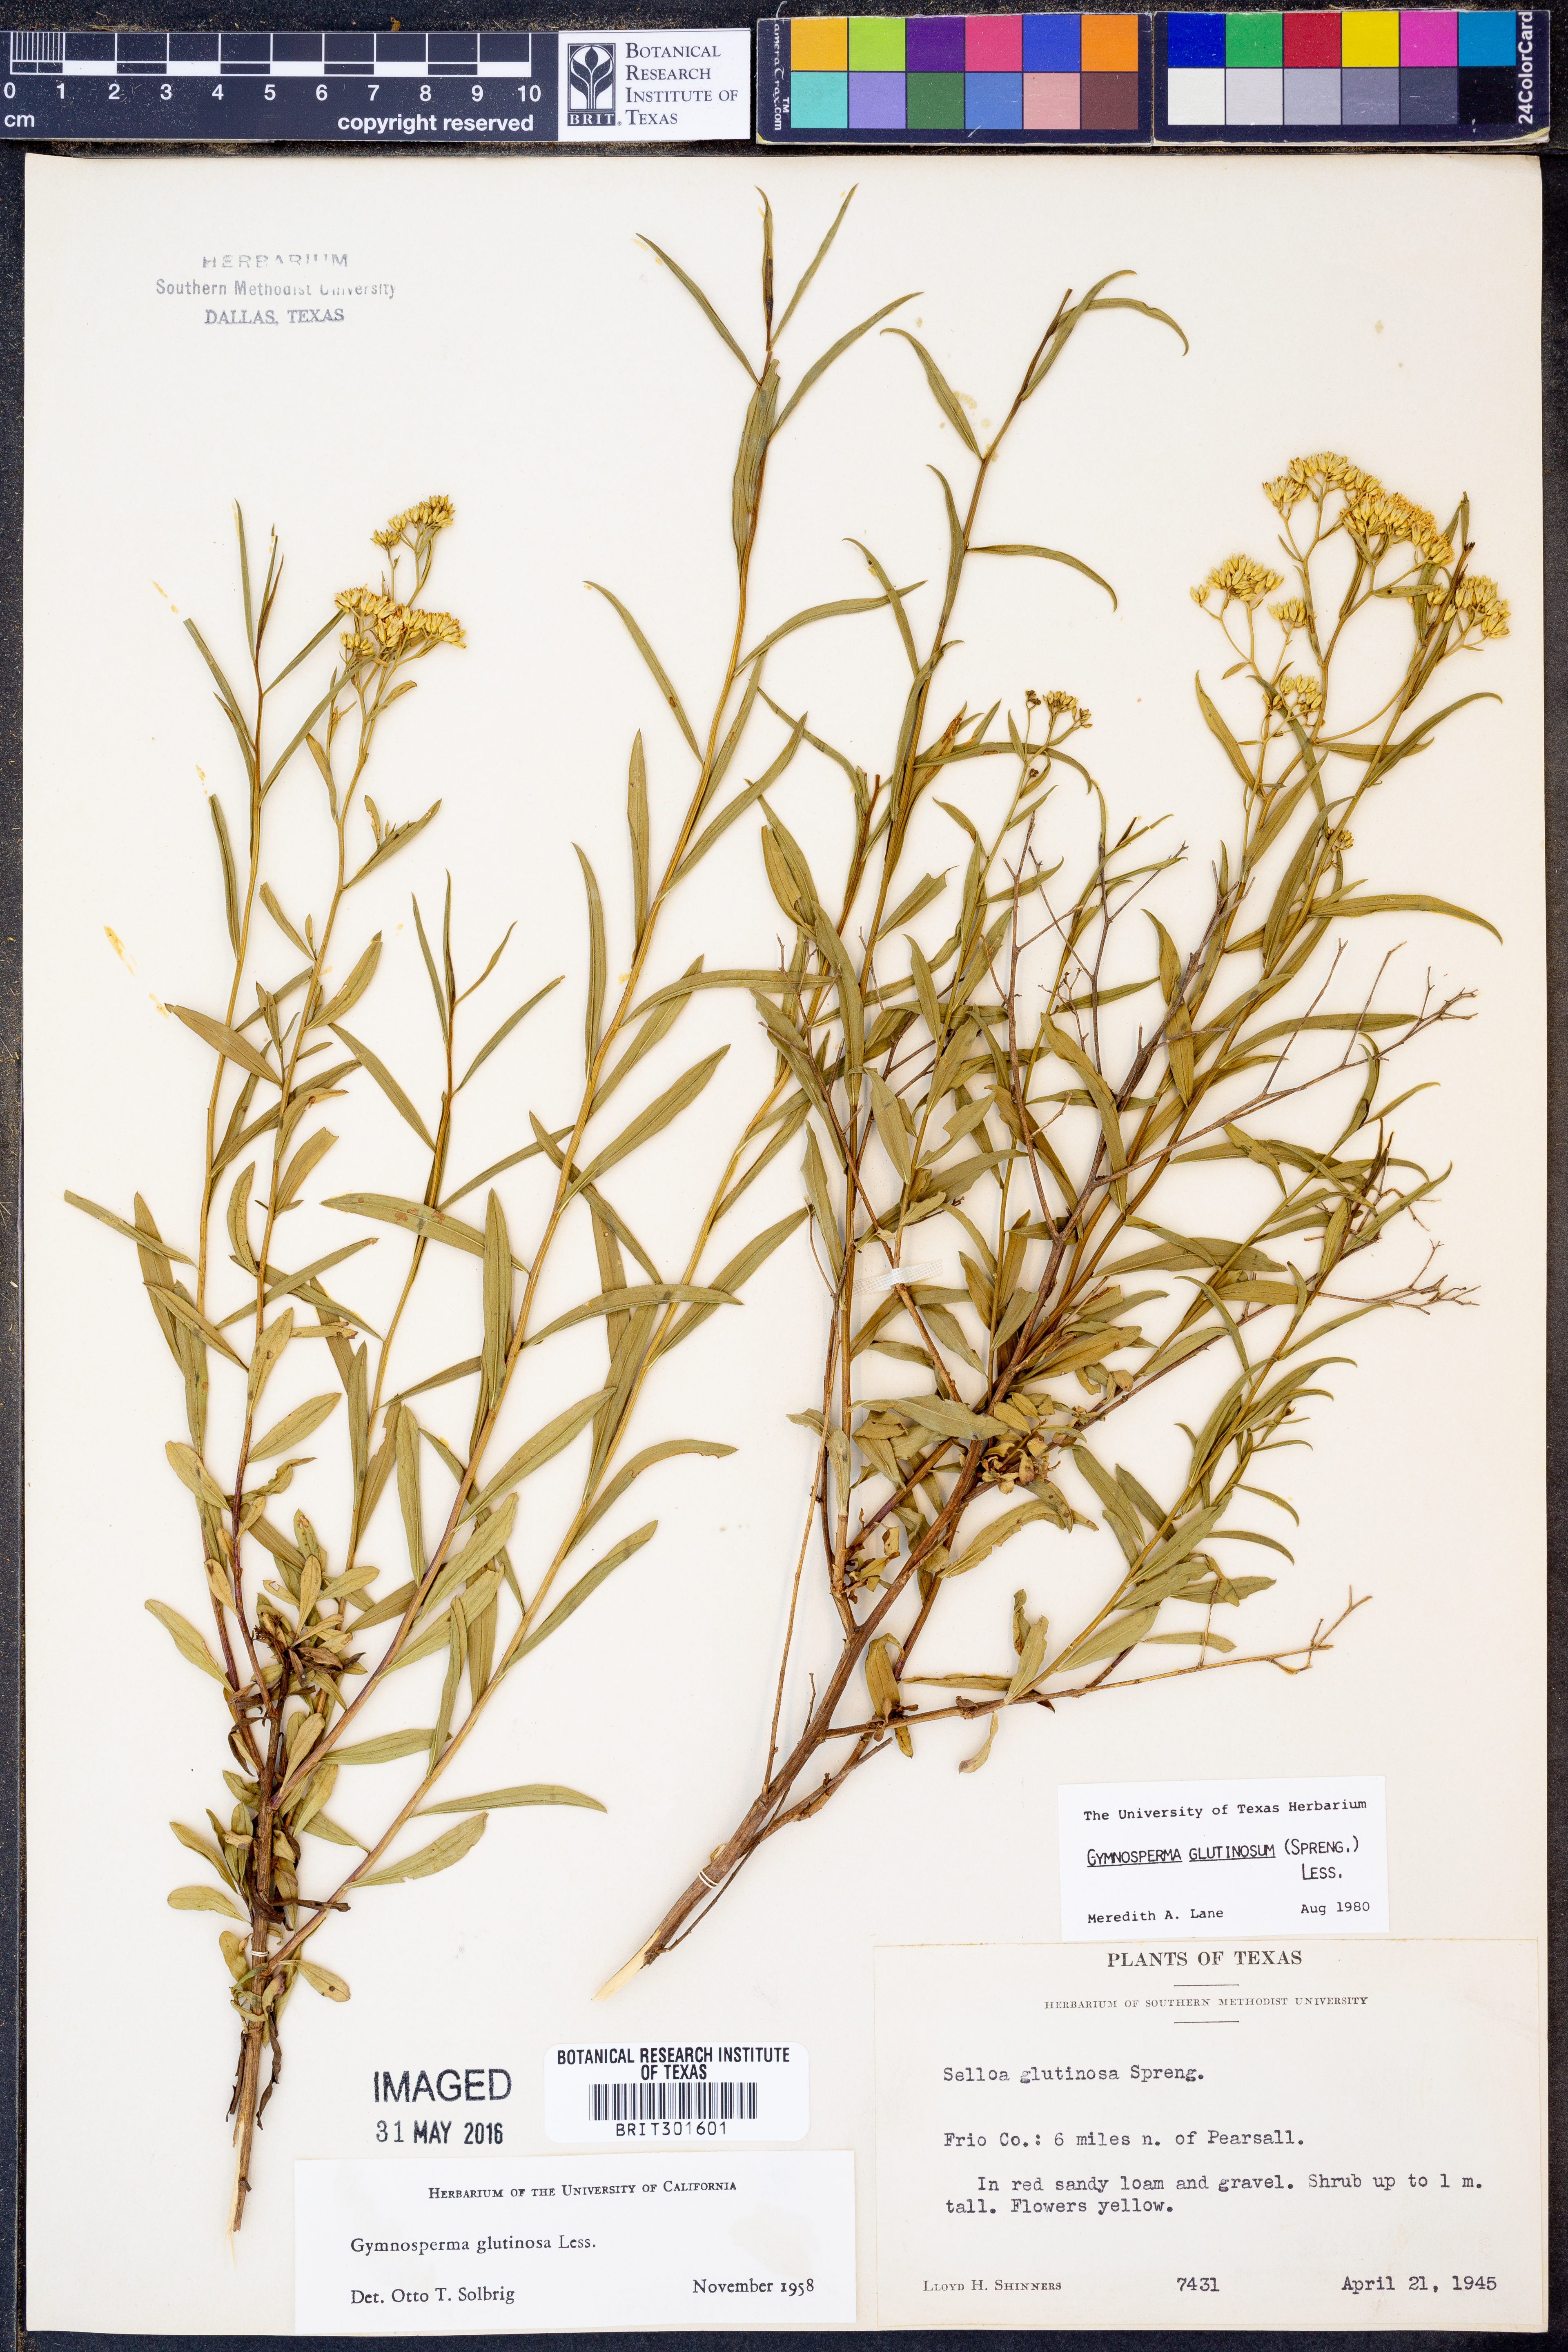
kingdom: Plantae
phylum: Tracheophyta
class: Magnoliopsida
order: Asterales
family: Asteraceae
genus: Gymnosperma
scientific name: Gymnosperma glutinosum
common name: Gumhead
